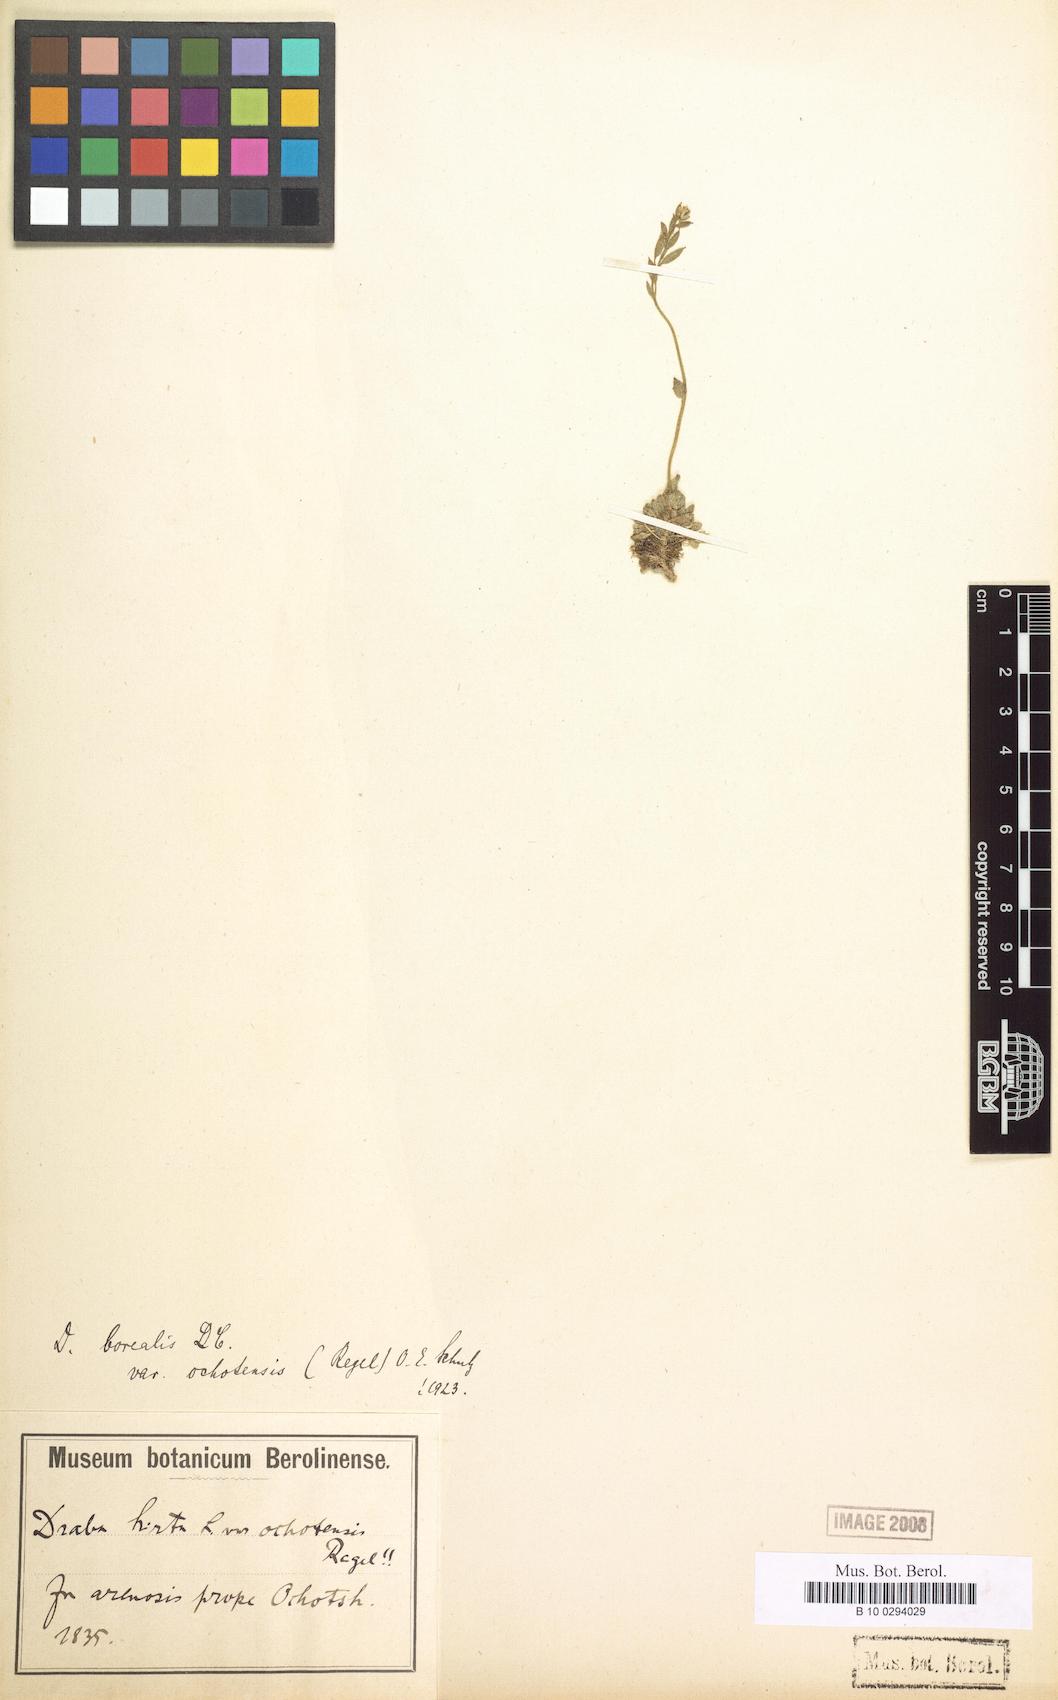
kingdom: Plantae
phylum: Tracheophyta
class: Magnoliopsida
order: Brassicales
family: Brassicaceae
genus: Draba
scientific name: Draba borealis
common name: Boreal draba
